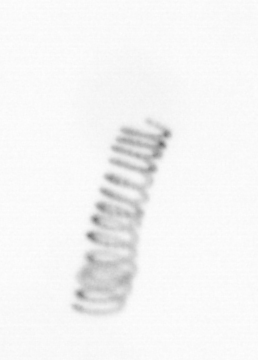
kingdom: Chromista
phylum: Ochrophyta
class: Bacillariophyceae
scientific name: Bacillariophyceae
